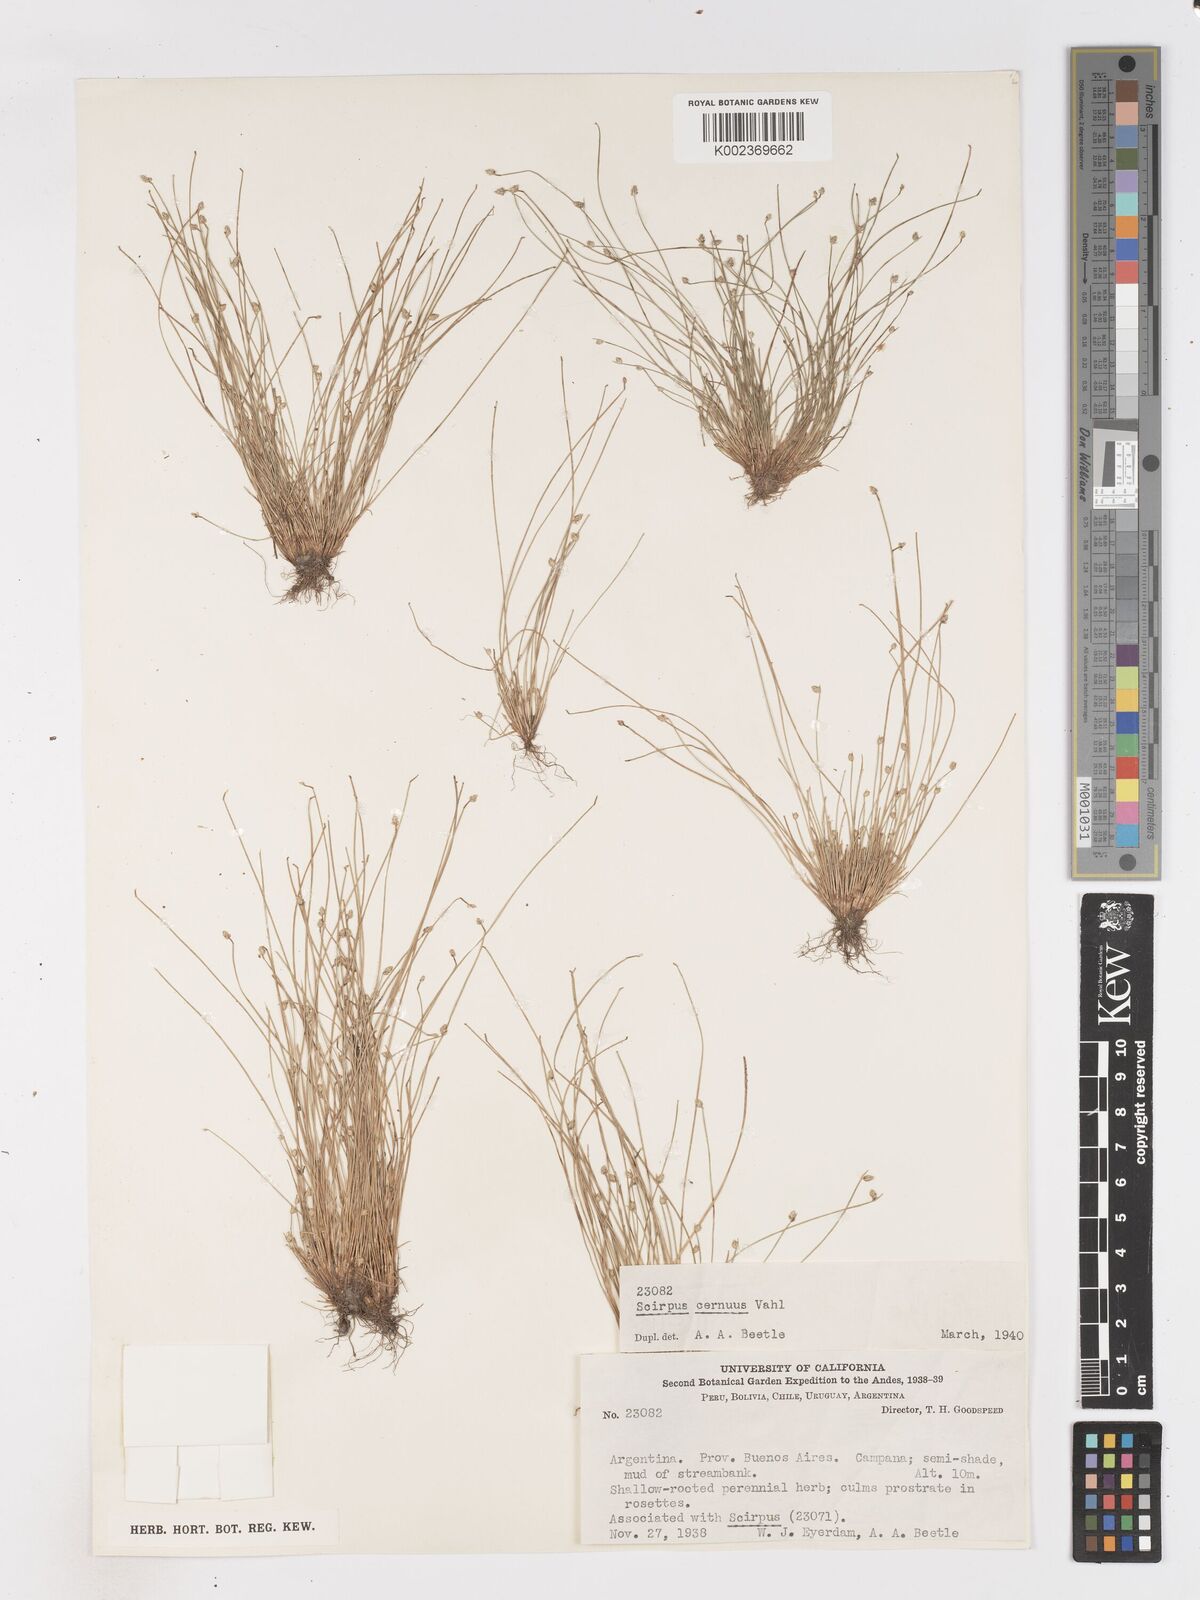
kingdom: Plantae
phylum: Tracheophyta
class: Liliopsida
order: Poales
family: Cyperaceae
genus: Isolepis
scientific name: Isolepis cernua
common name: Slender club-rush
